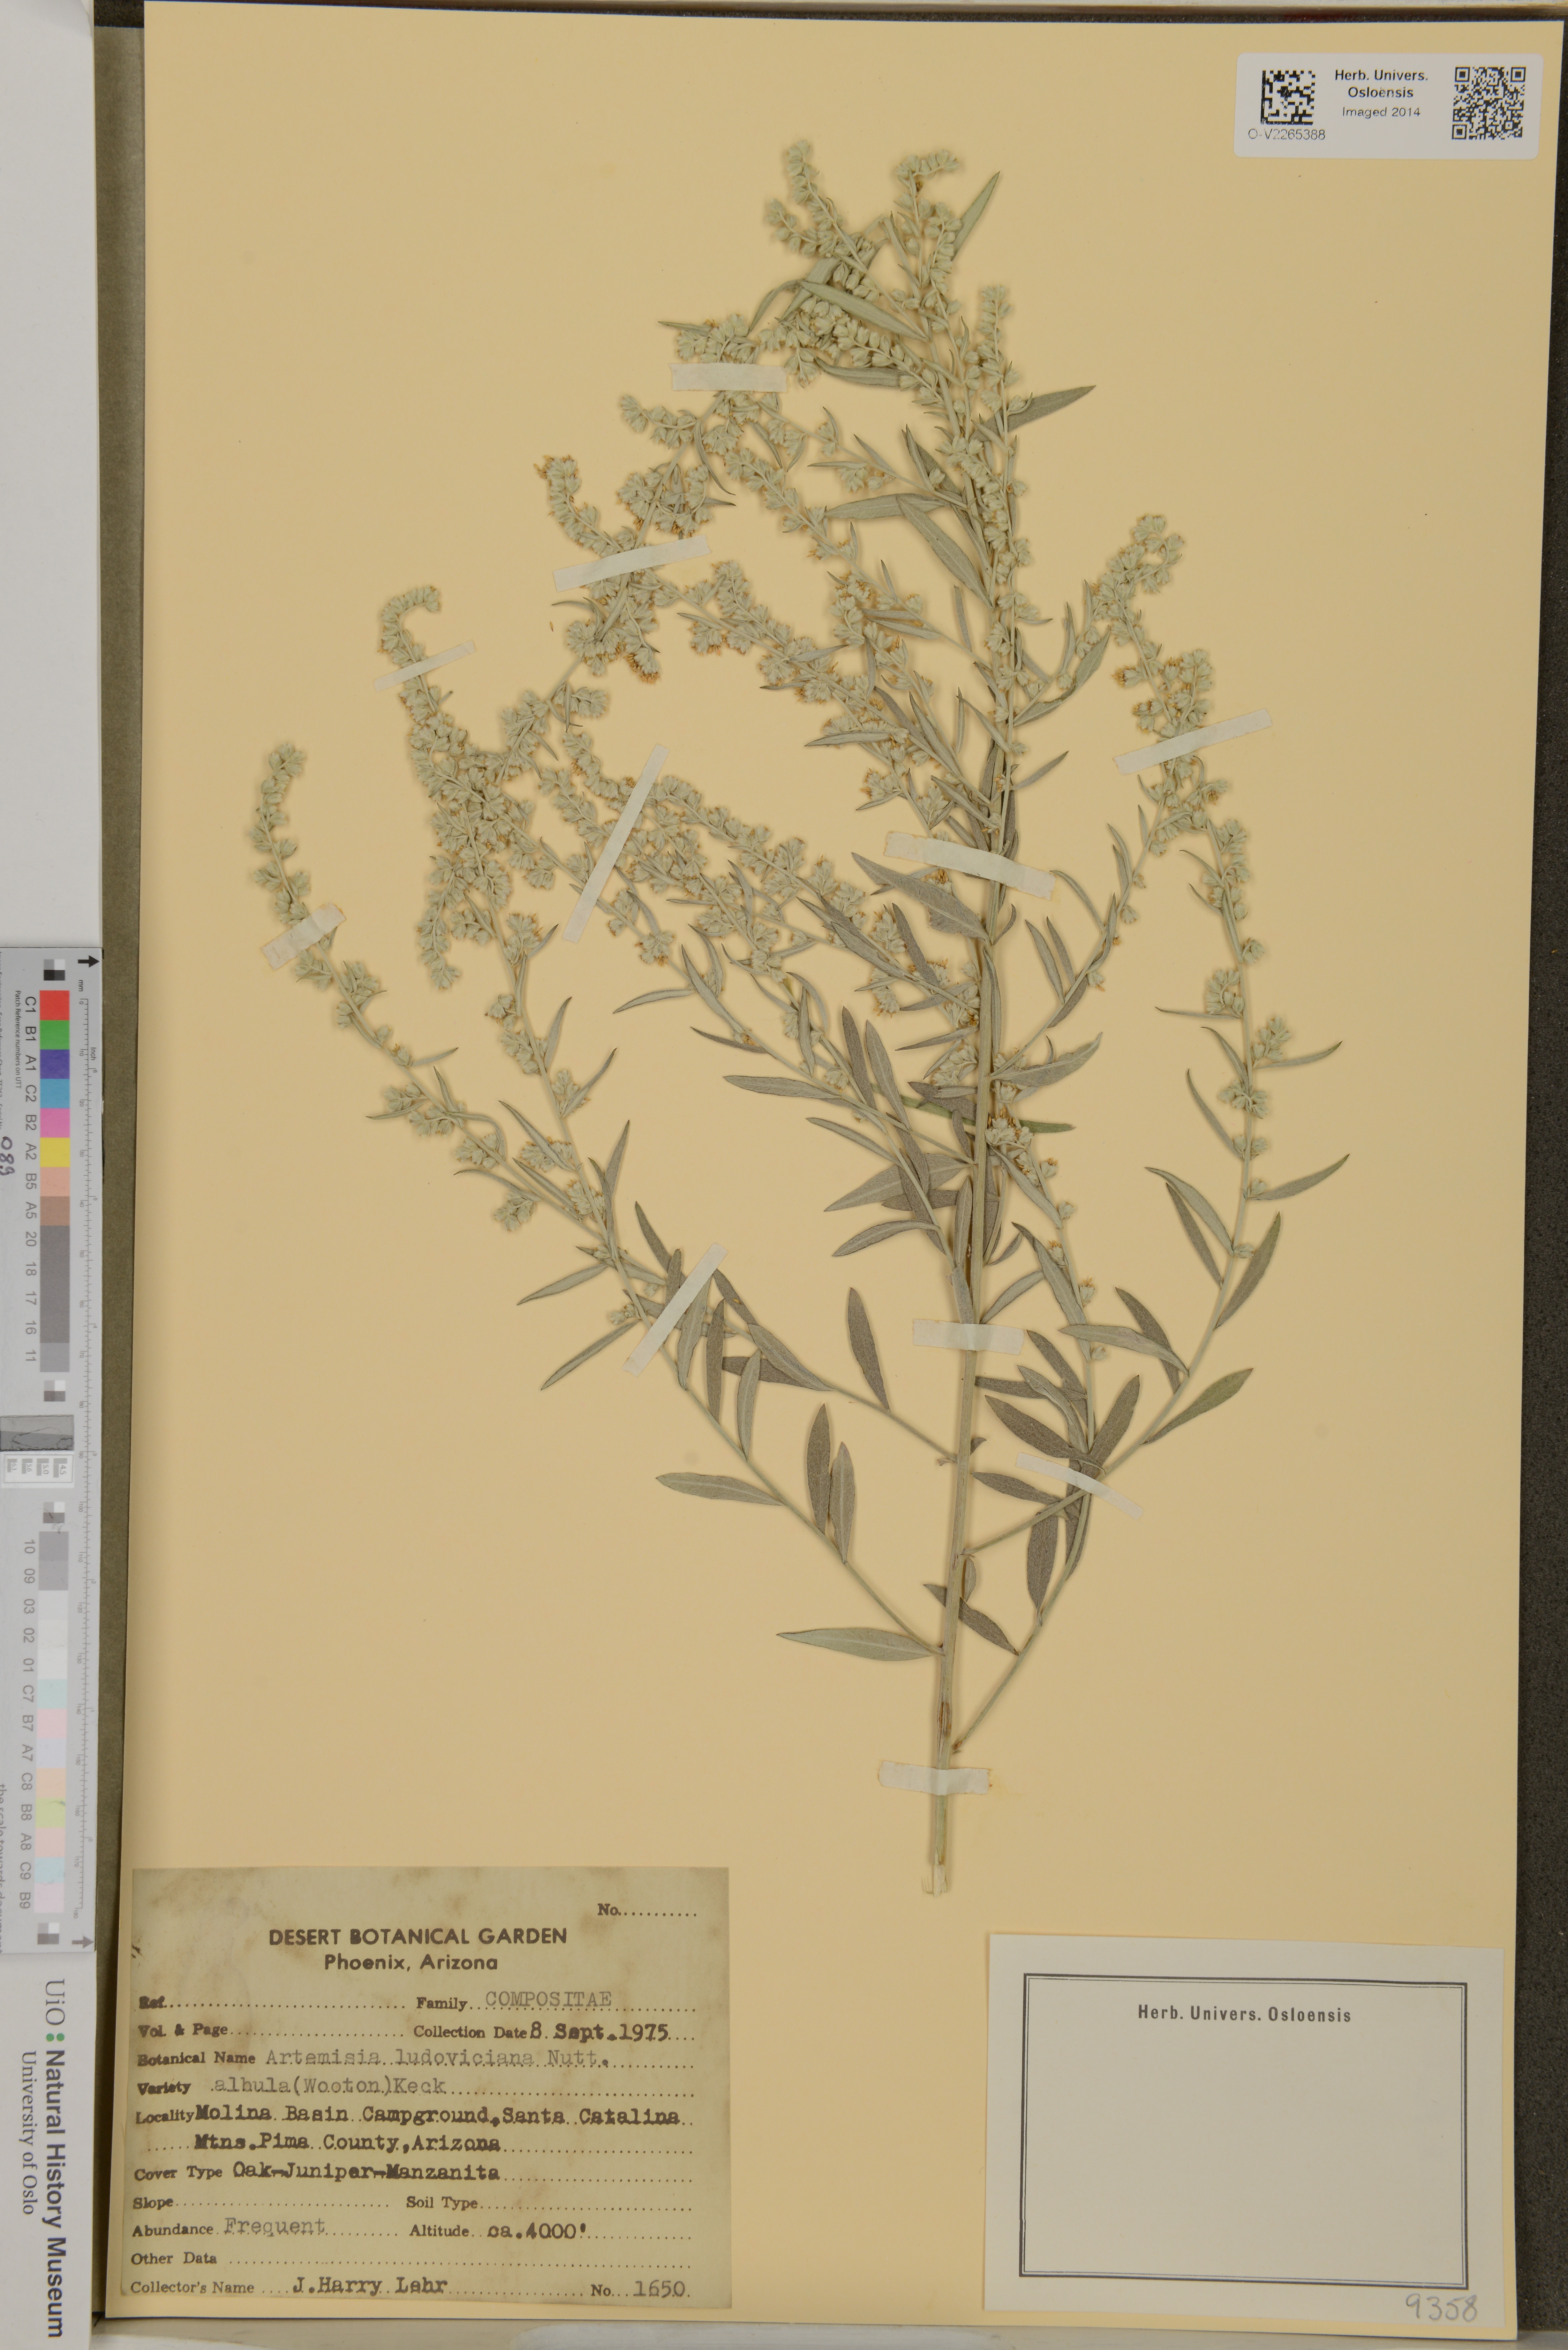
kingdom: Plantae
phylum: Tracheophyta
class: Magnoliopsida
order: Asterales
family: Asteraceae
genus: Artemisia
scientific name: Artemisia ludoviciana
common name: Western mugwort
